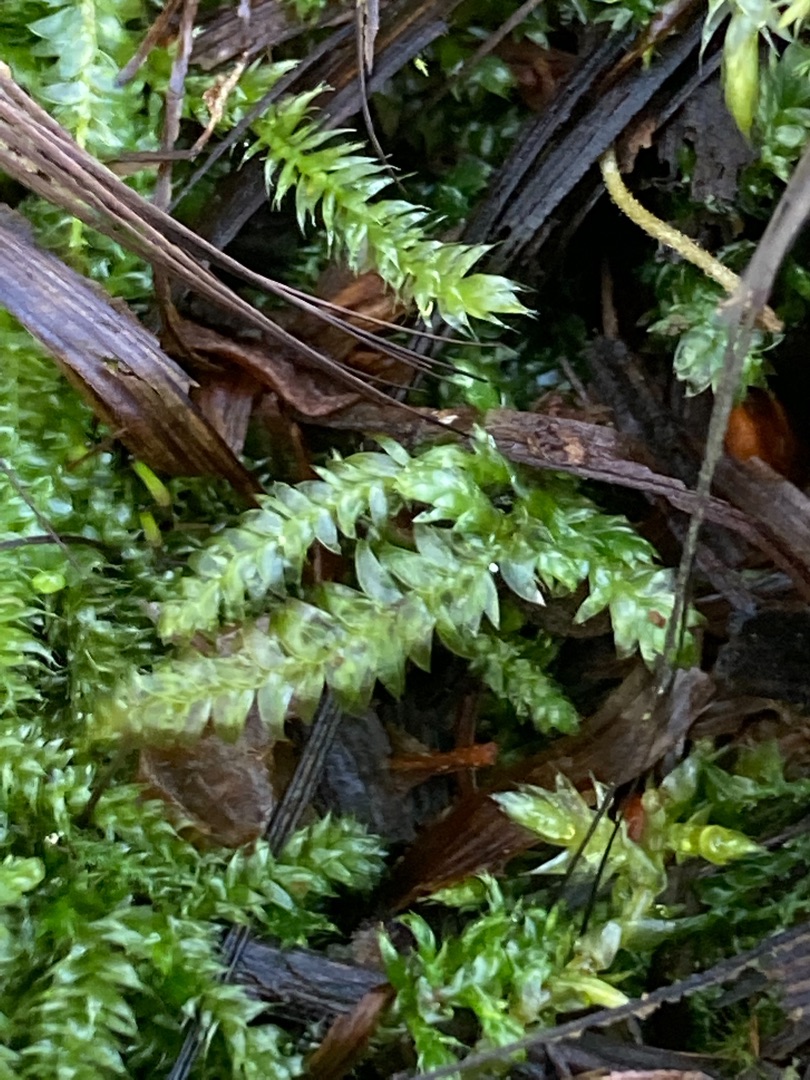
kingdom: Plantae
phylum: Bryophyta
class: Bryopsida
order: Hypnales
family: Plagiotheciaceae
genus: Plagiothecium
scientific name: Plagiothecium
